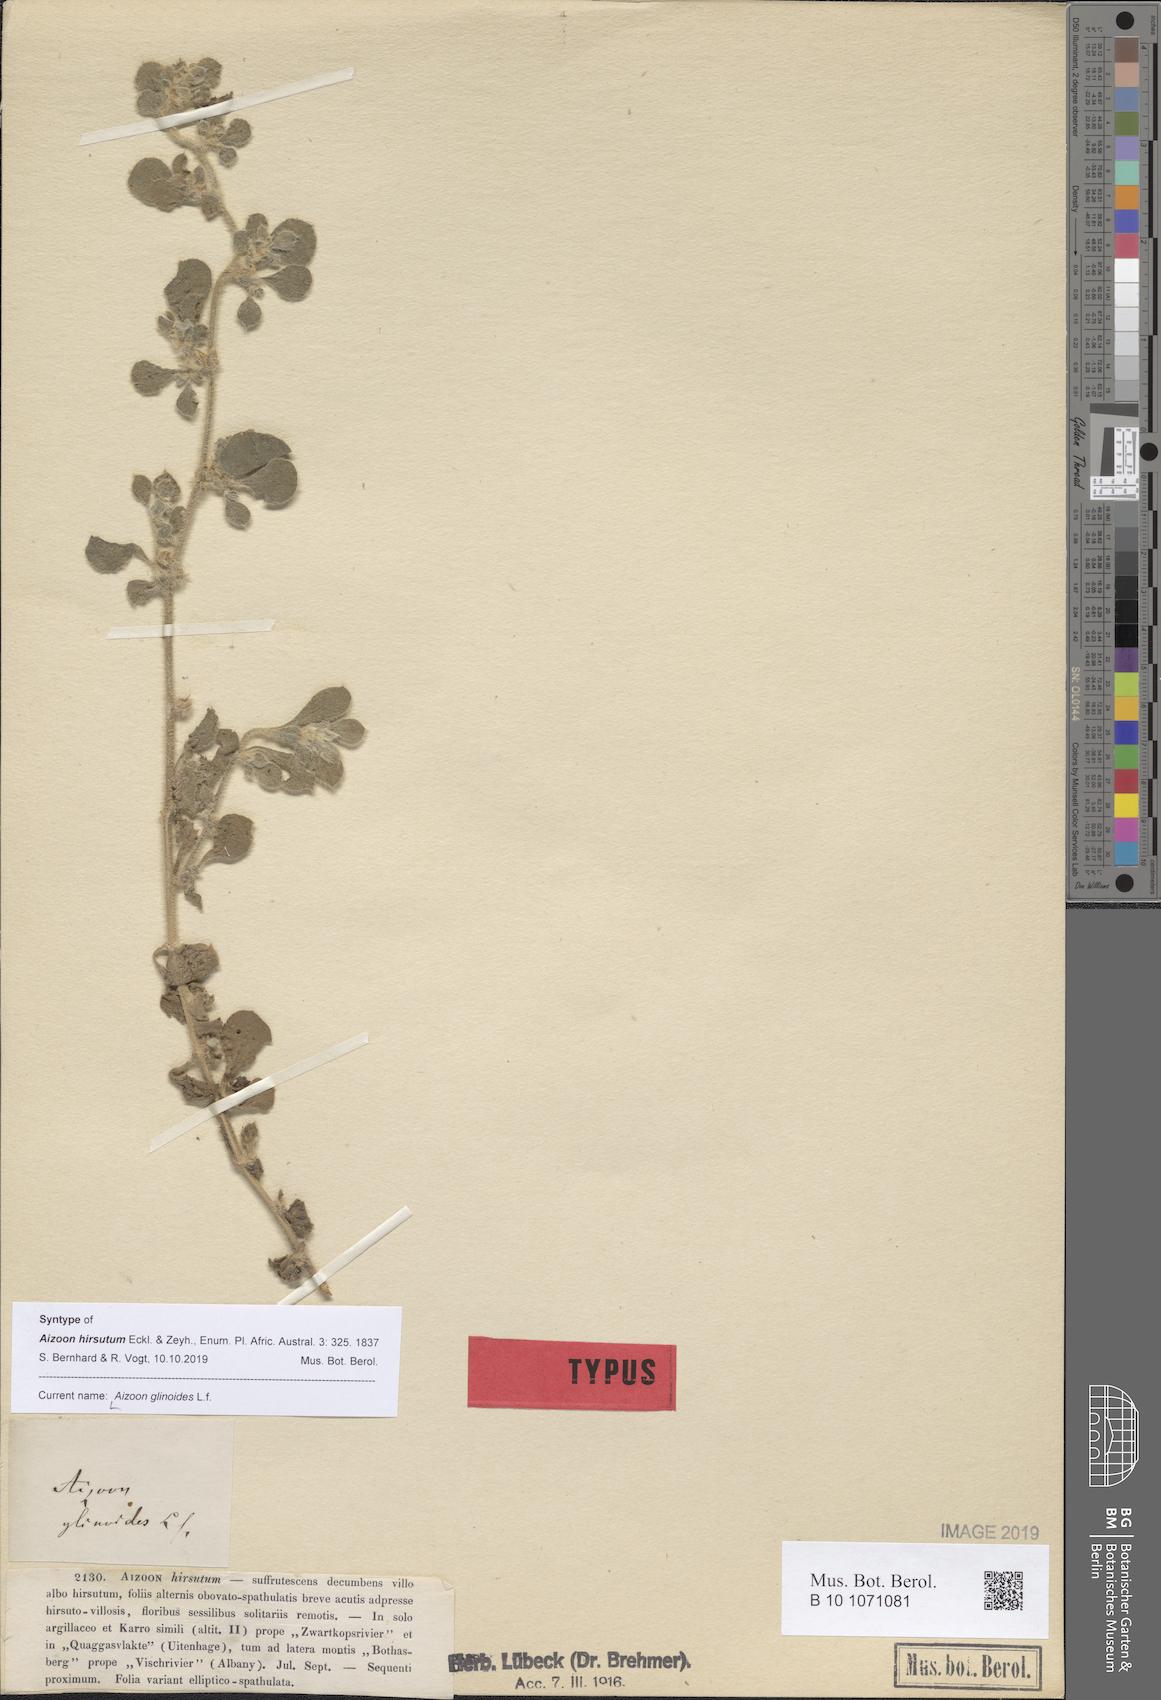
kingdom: Plantae
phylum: Tracheophyta
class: Magnoliopsida
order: Caryophyllales
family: Aizoaceae
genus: Aizoon
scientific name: Aizoon glinoides
